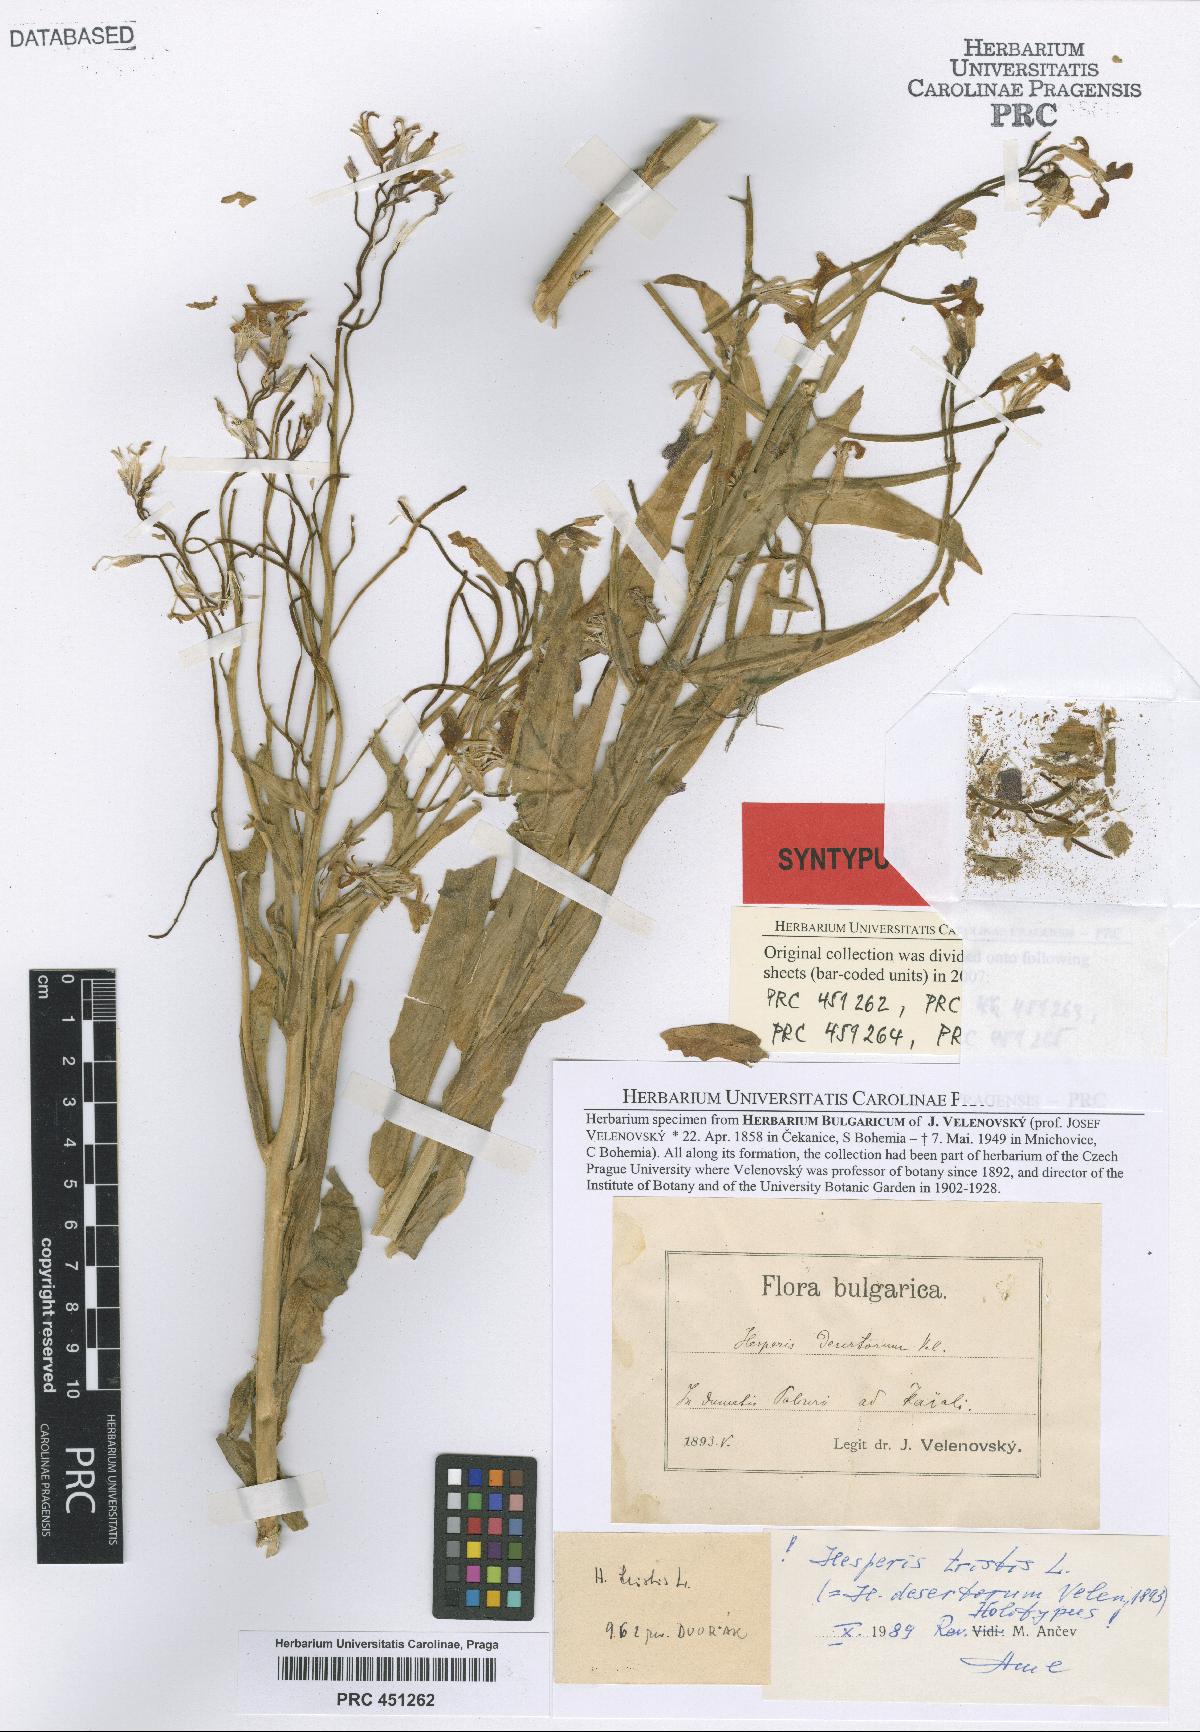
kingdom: Plantae
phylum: Tracheophyta
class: Magnoliopsida
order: Brassicales
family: Brassicaceae
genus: Hesperis
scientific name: Hesperis tristis
